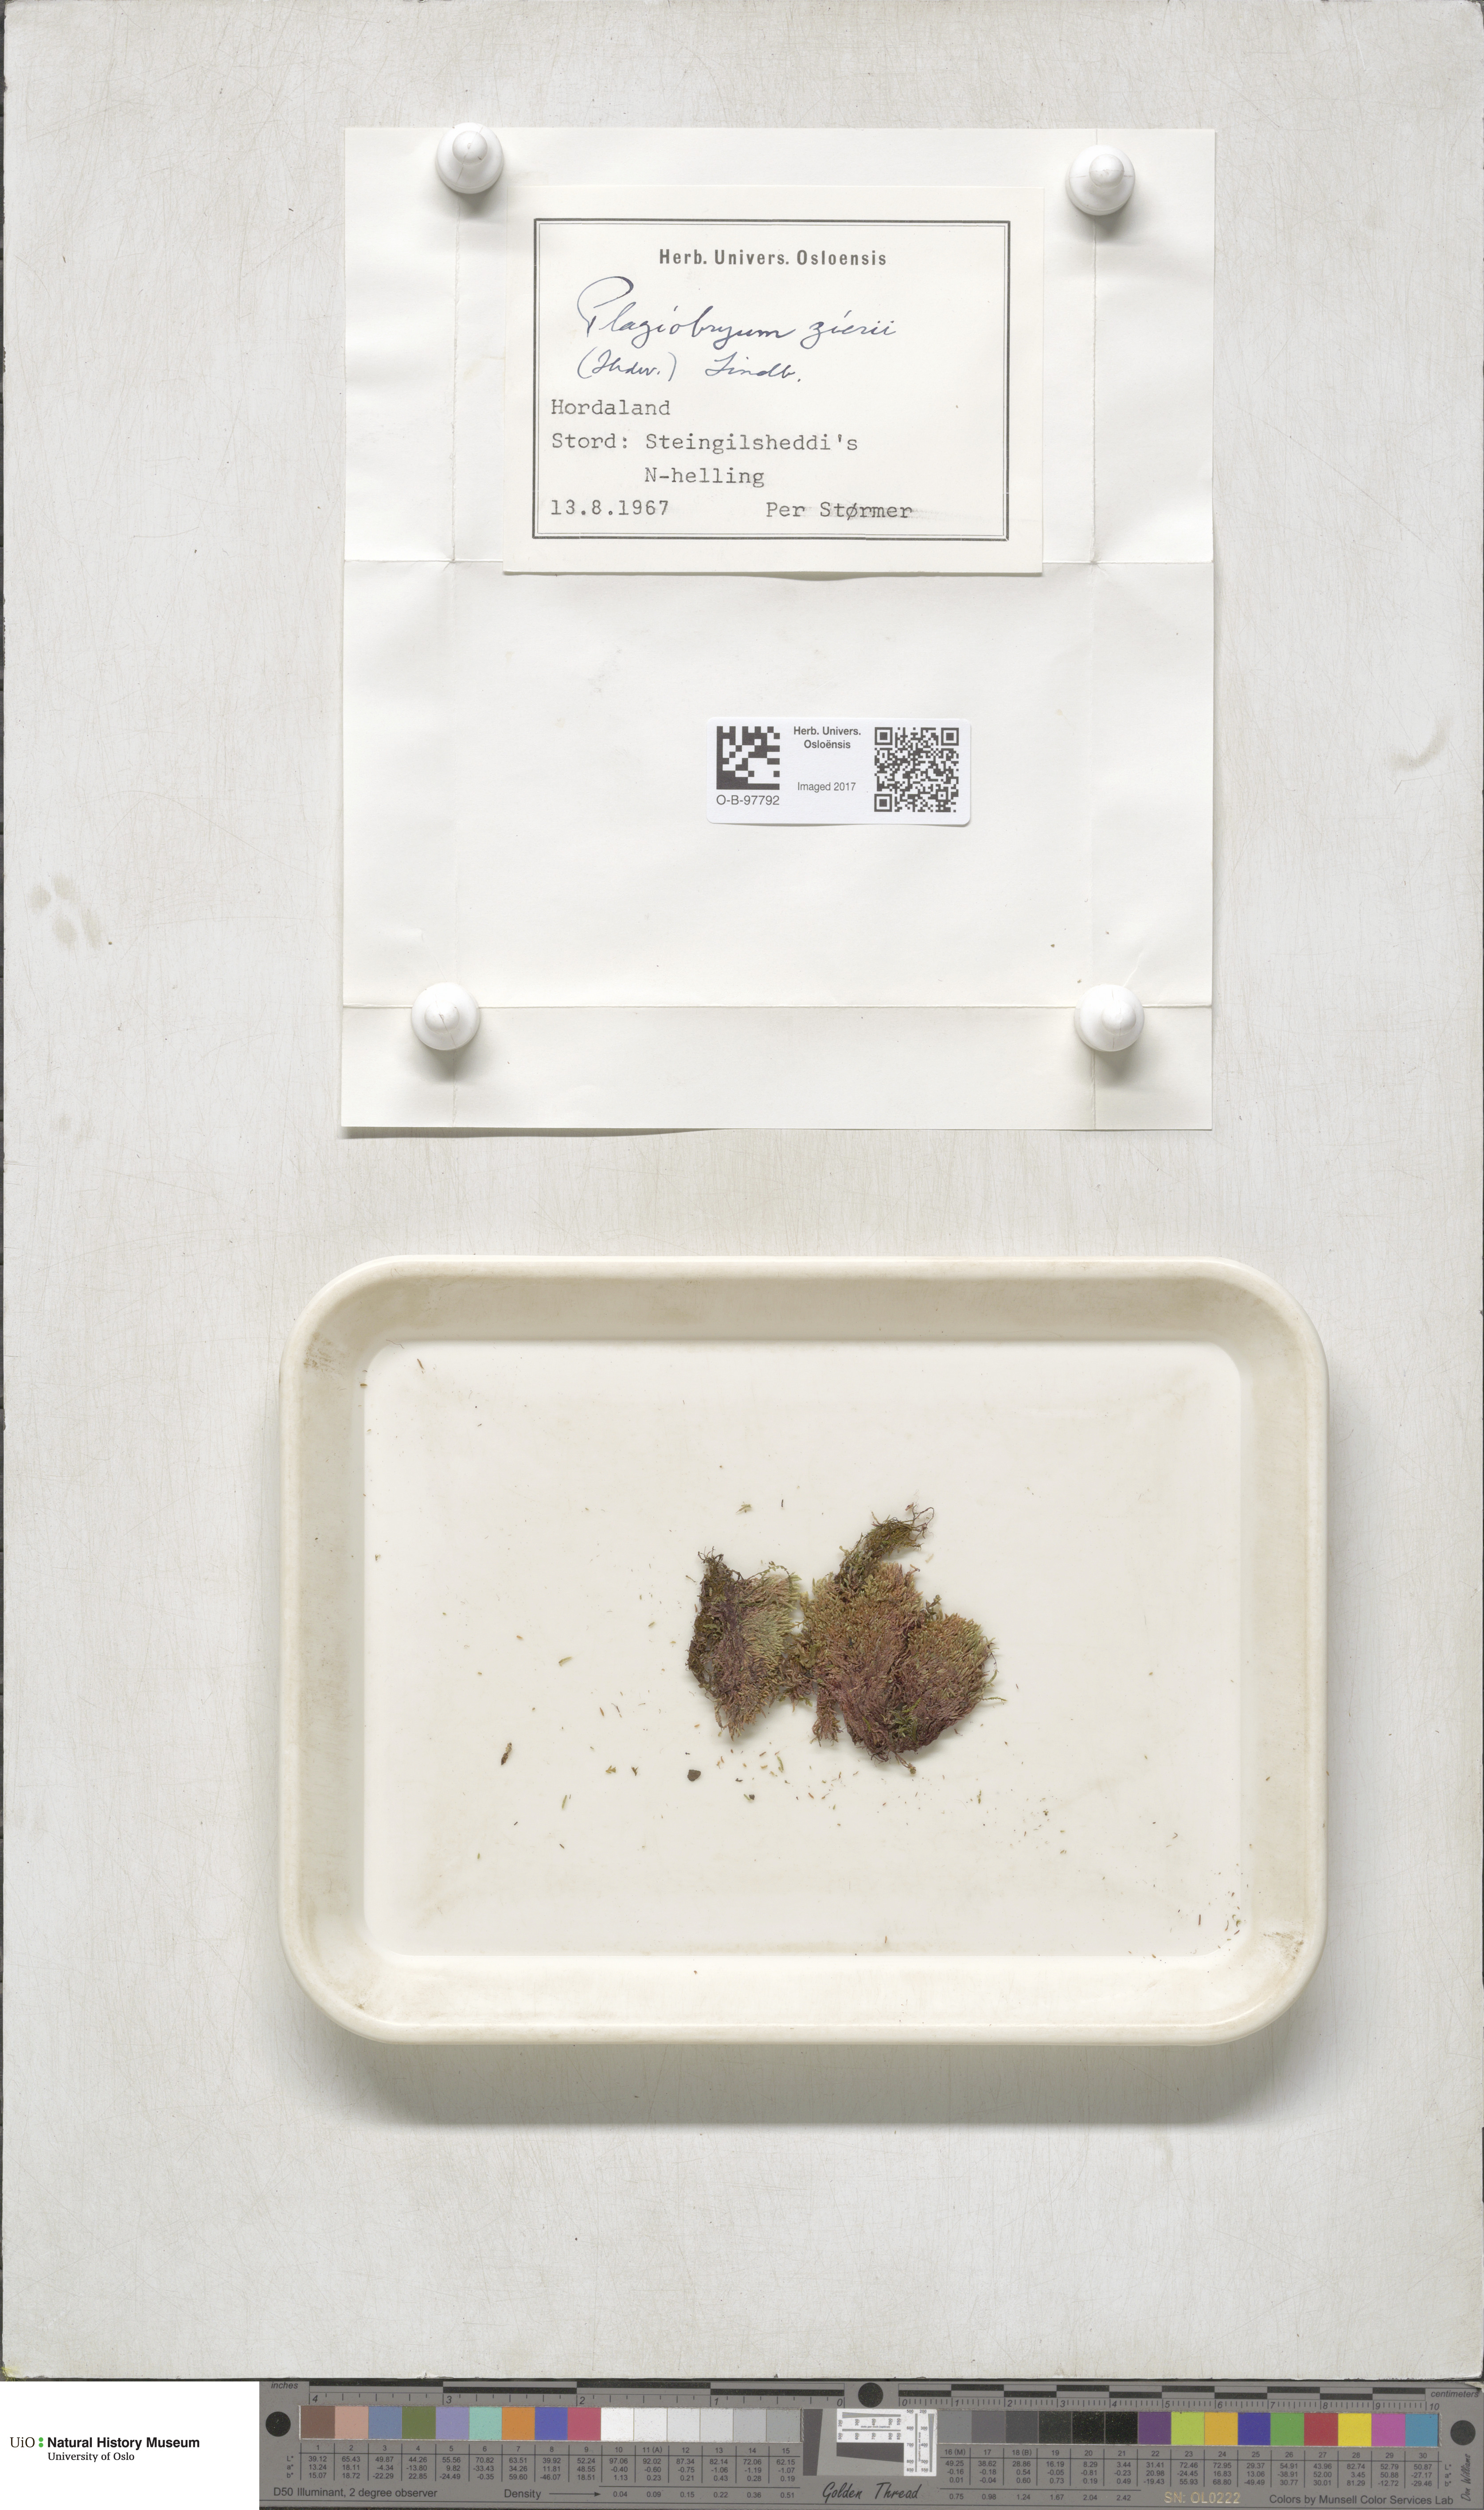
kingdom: Plantae
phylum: Bryophyta
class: Bryopsida
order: Bryales
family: Bryaceae
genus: Plagiobryum
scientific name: Plagiobryum zieri
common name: Zier's hump moss
